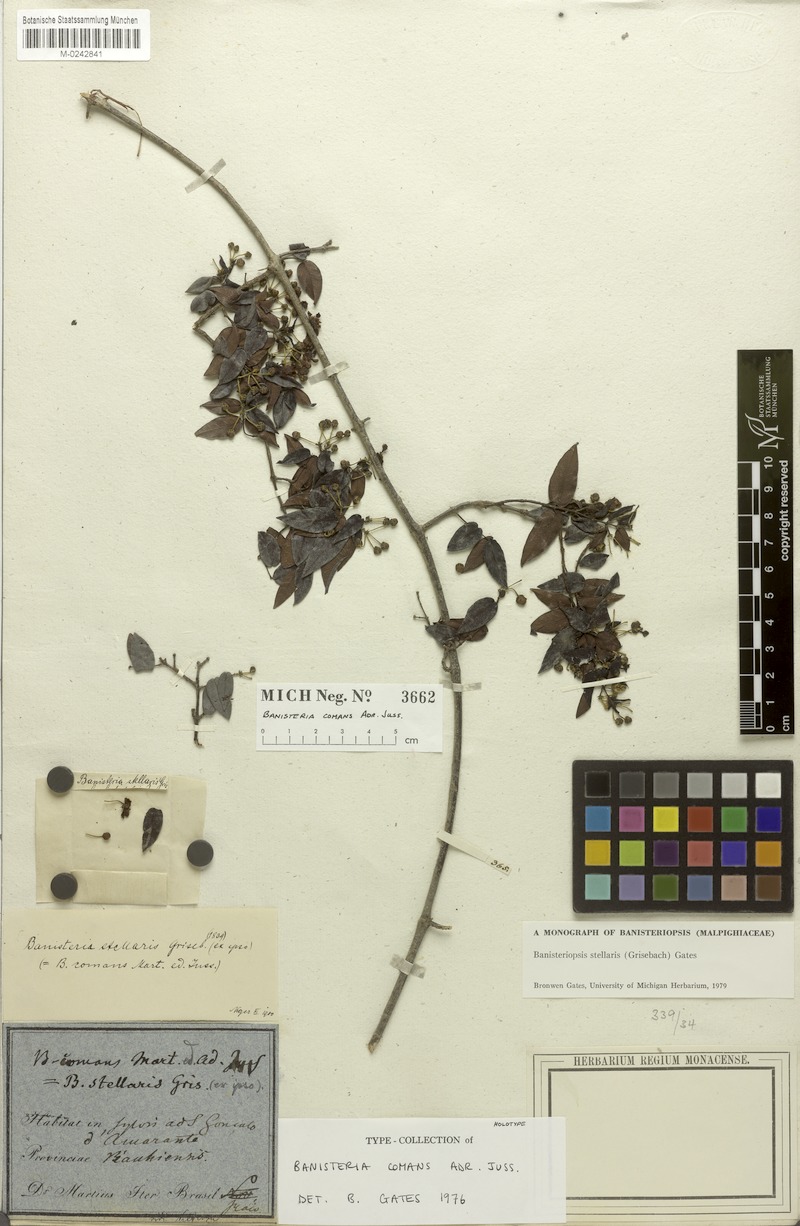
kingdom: Plantae
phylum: Tracheophyta
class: Magnoliopsida
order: Malpighiales
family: Malpighiaceae
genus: Banisteriopsis
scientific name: Banisteriopsis stellaris
